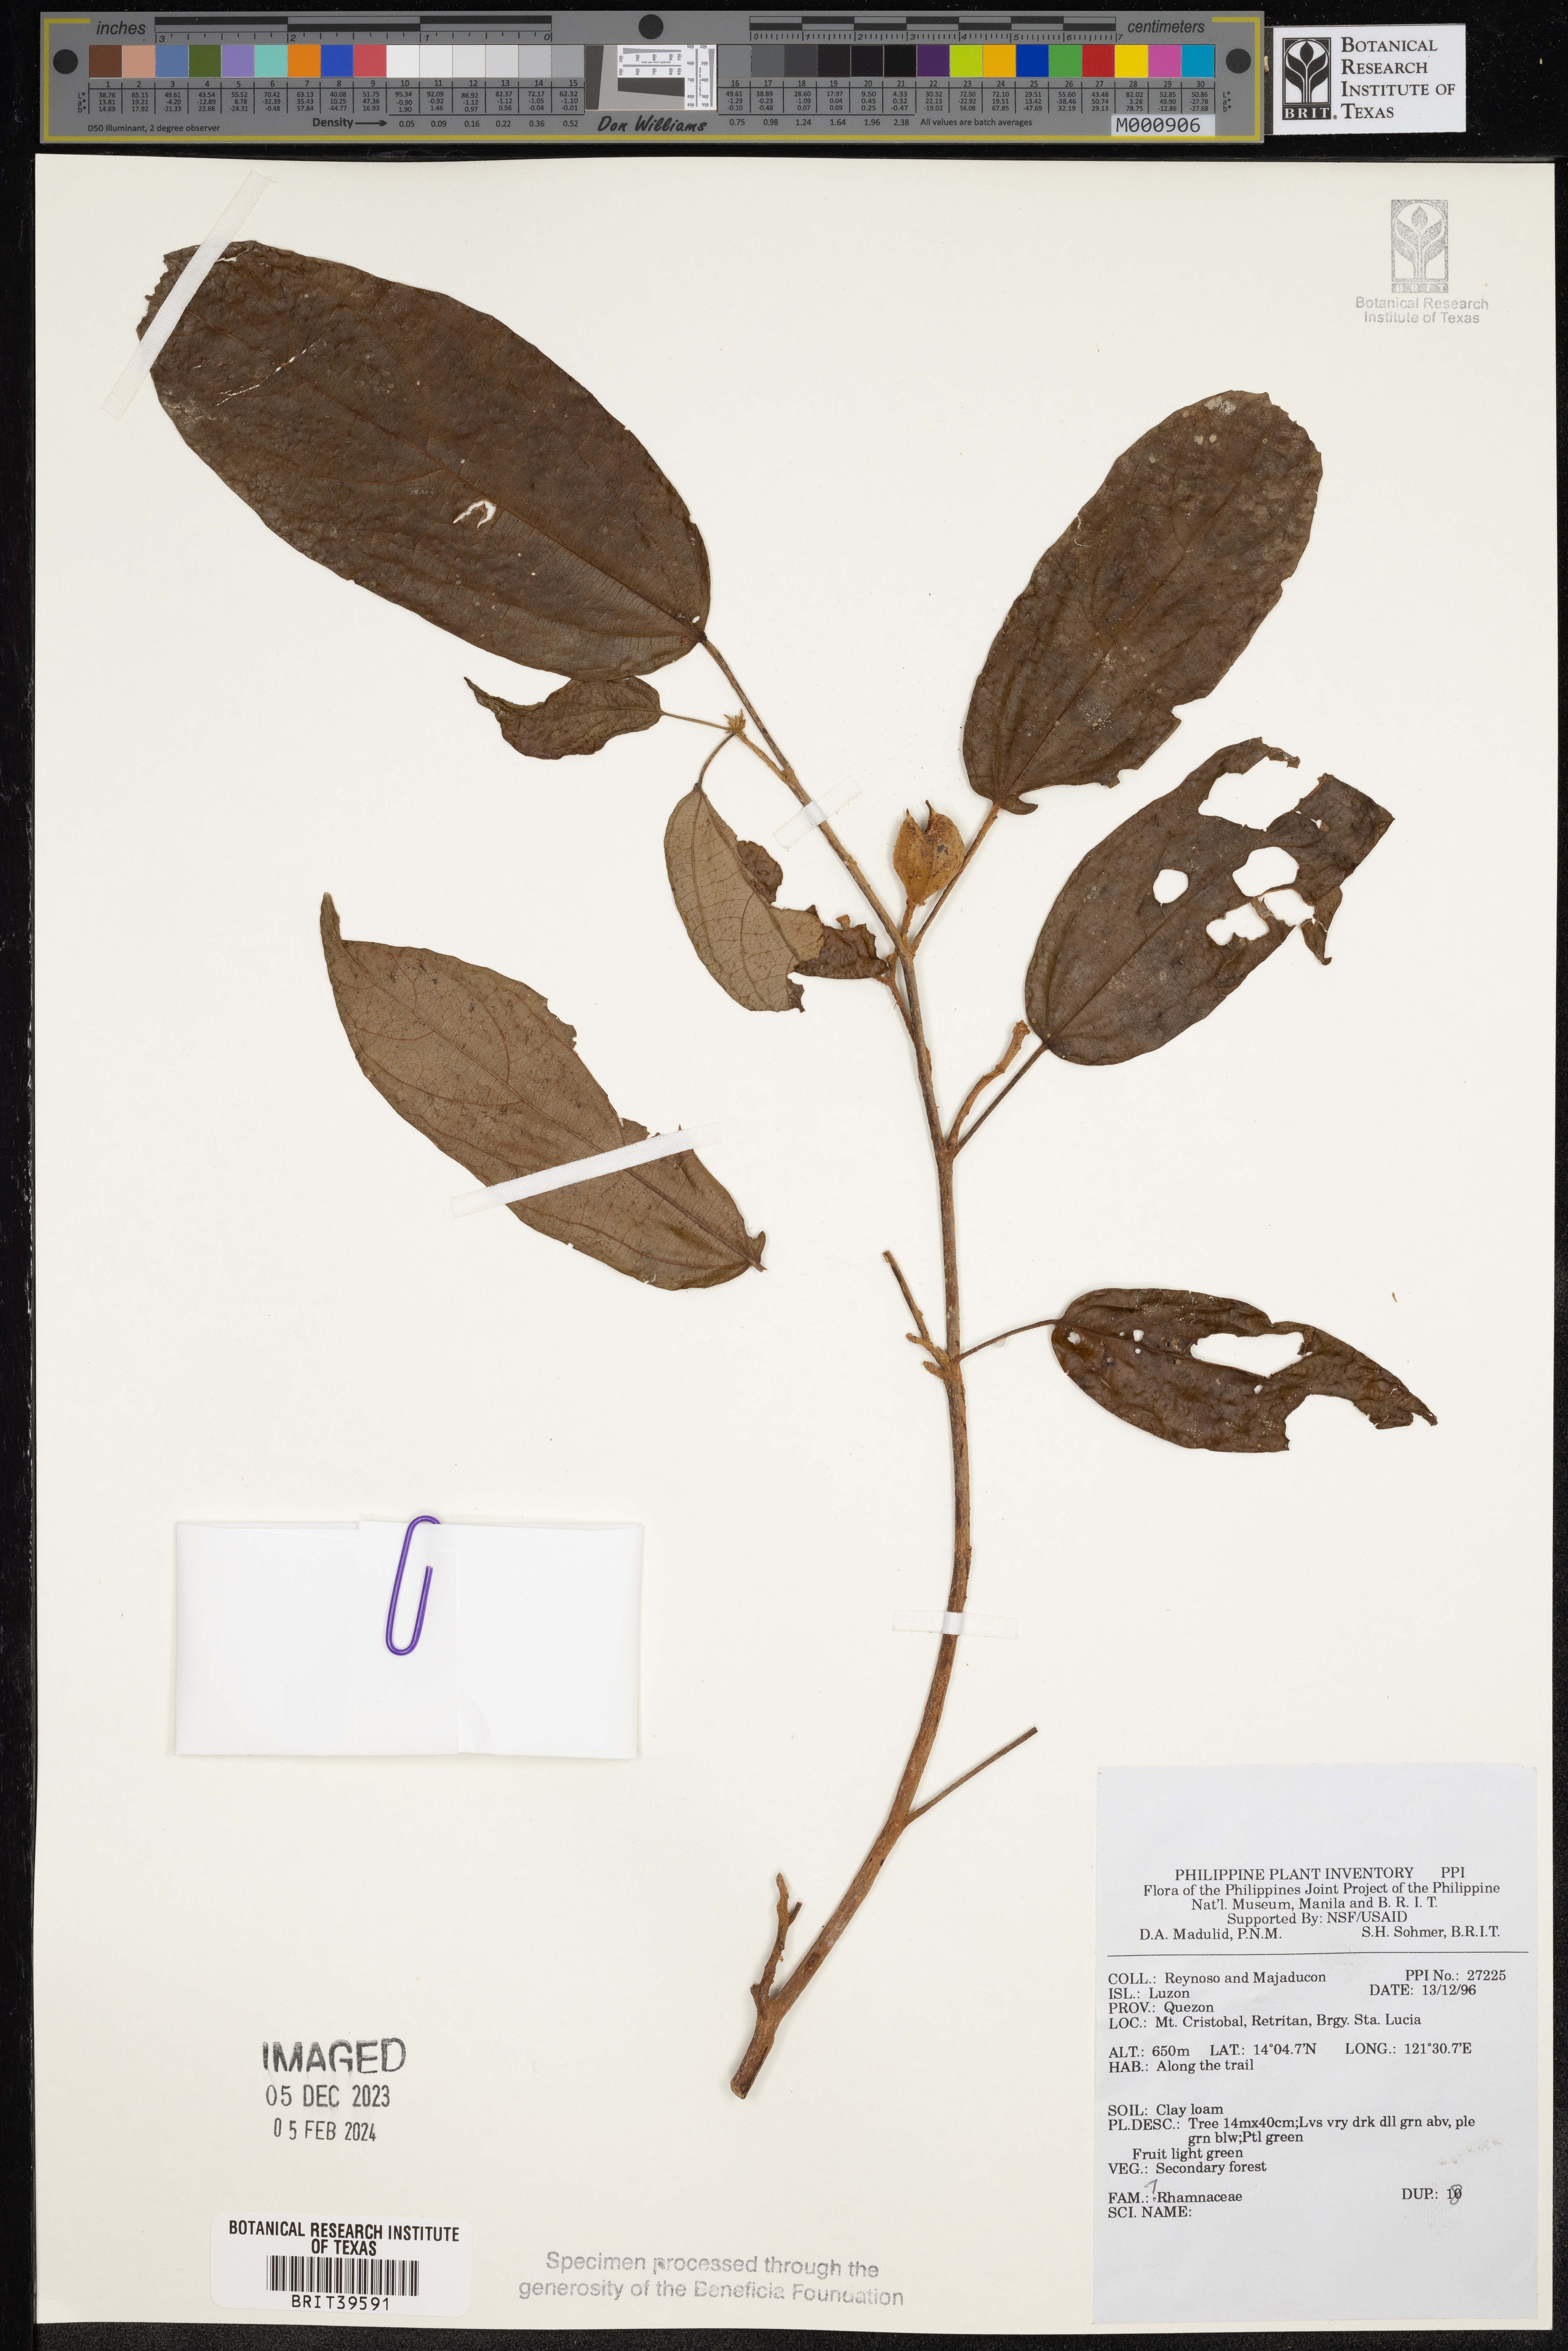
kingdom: Plantae
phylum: Tracheophyta
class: Magnoliopsida
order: Rosales
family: Rhamnaceae
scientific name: Rhamnaceae
